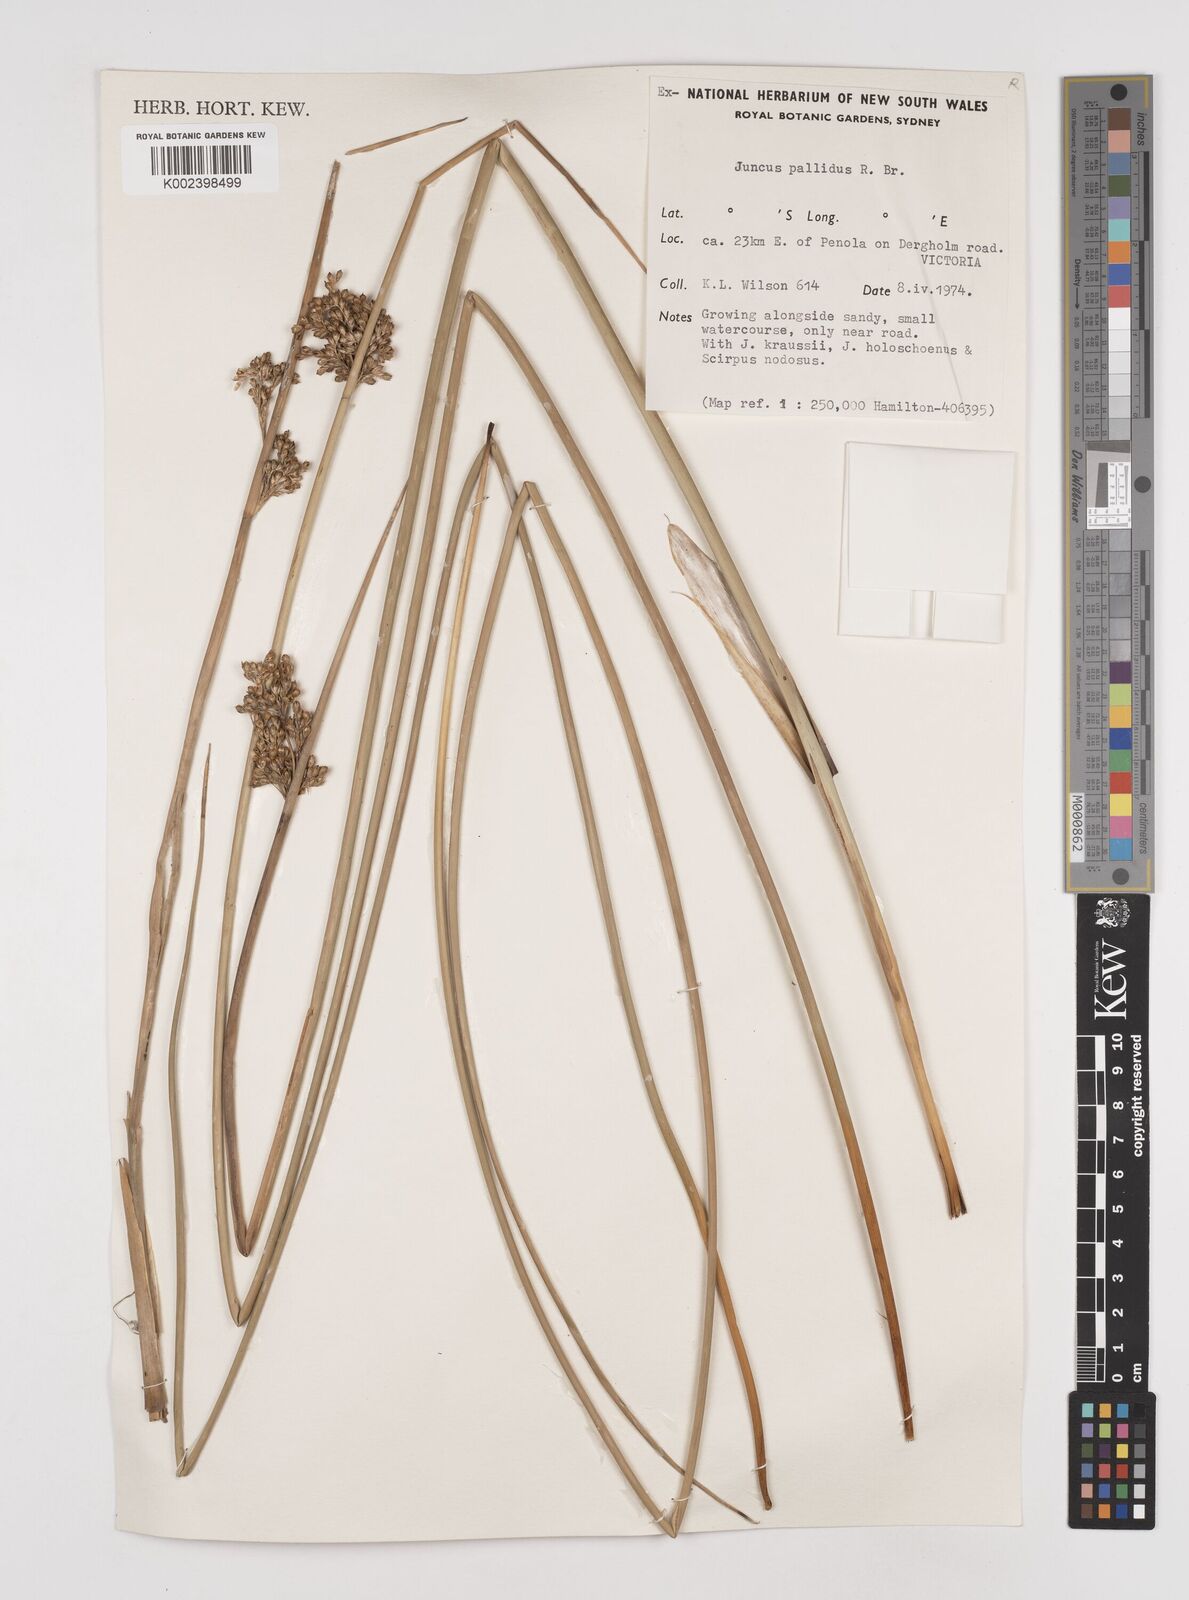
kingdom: Plantae
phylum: Tracheophyta
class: Liliopsida
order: Poales
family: Juncaceae
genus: Juncus
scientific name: Juncus pallidus
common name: Great soft-rush
